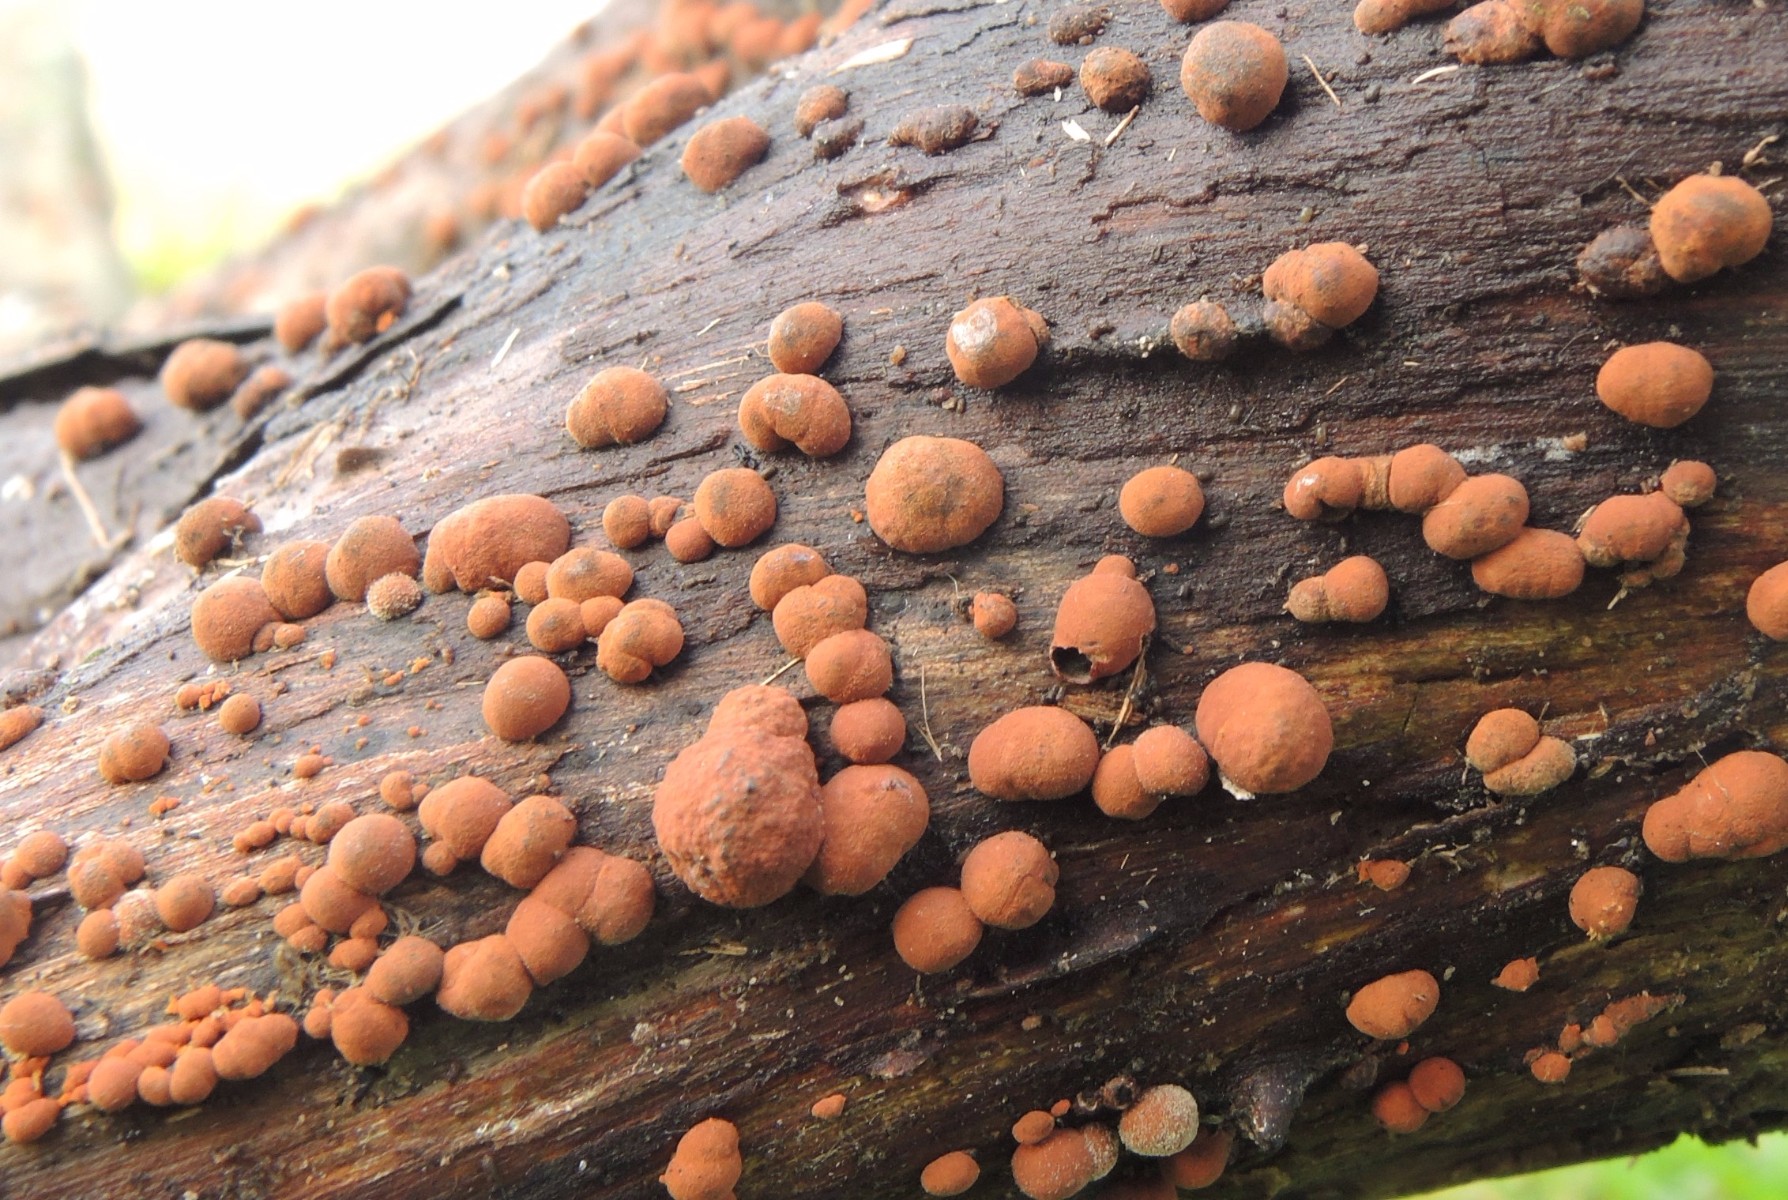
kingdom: Fungi
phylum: Ascomycota
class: Sordariomycetes
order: Xylariales
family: Hypoxylaceae
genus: Hypoxylon
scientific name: Hypoxylon howeanum
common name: halvkugleformet kulbær
